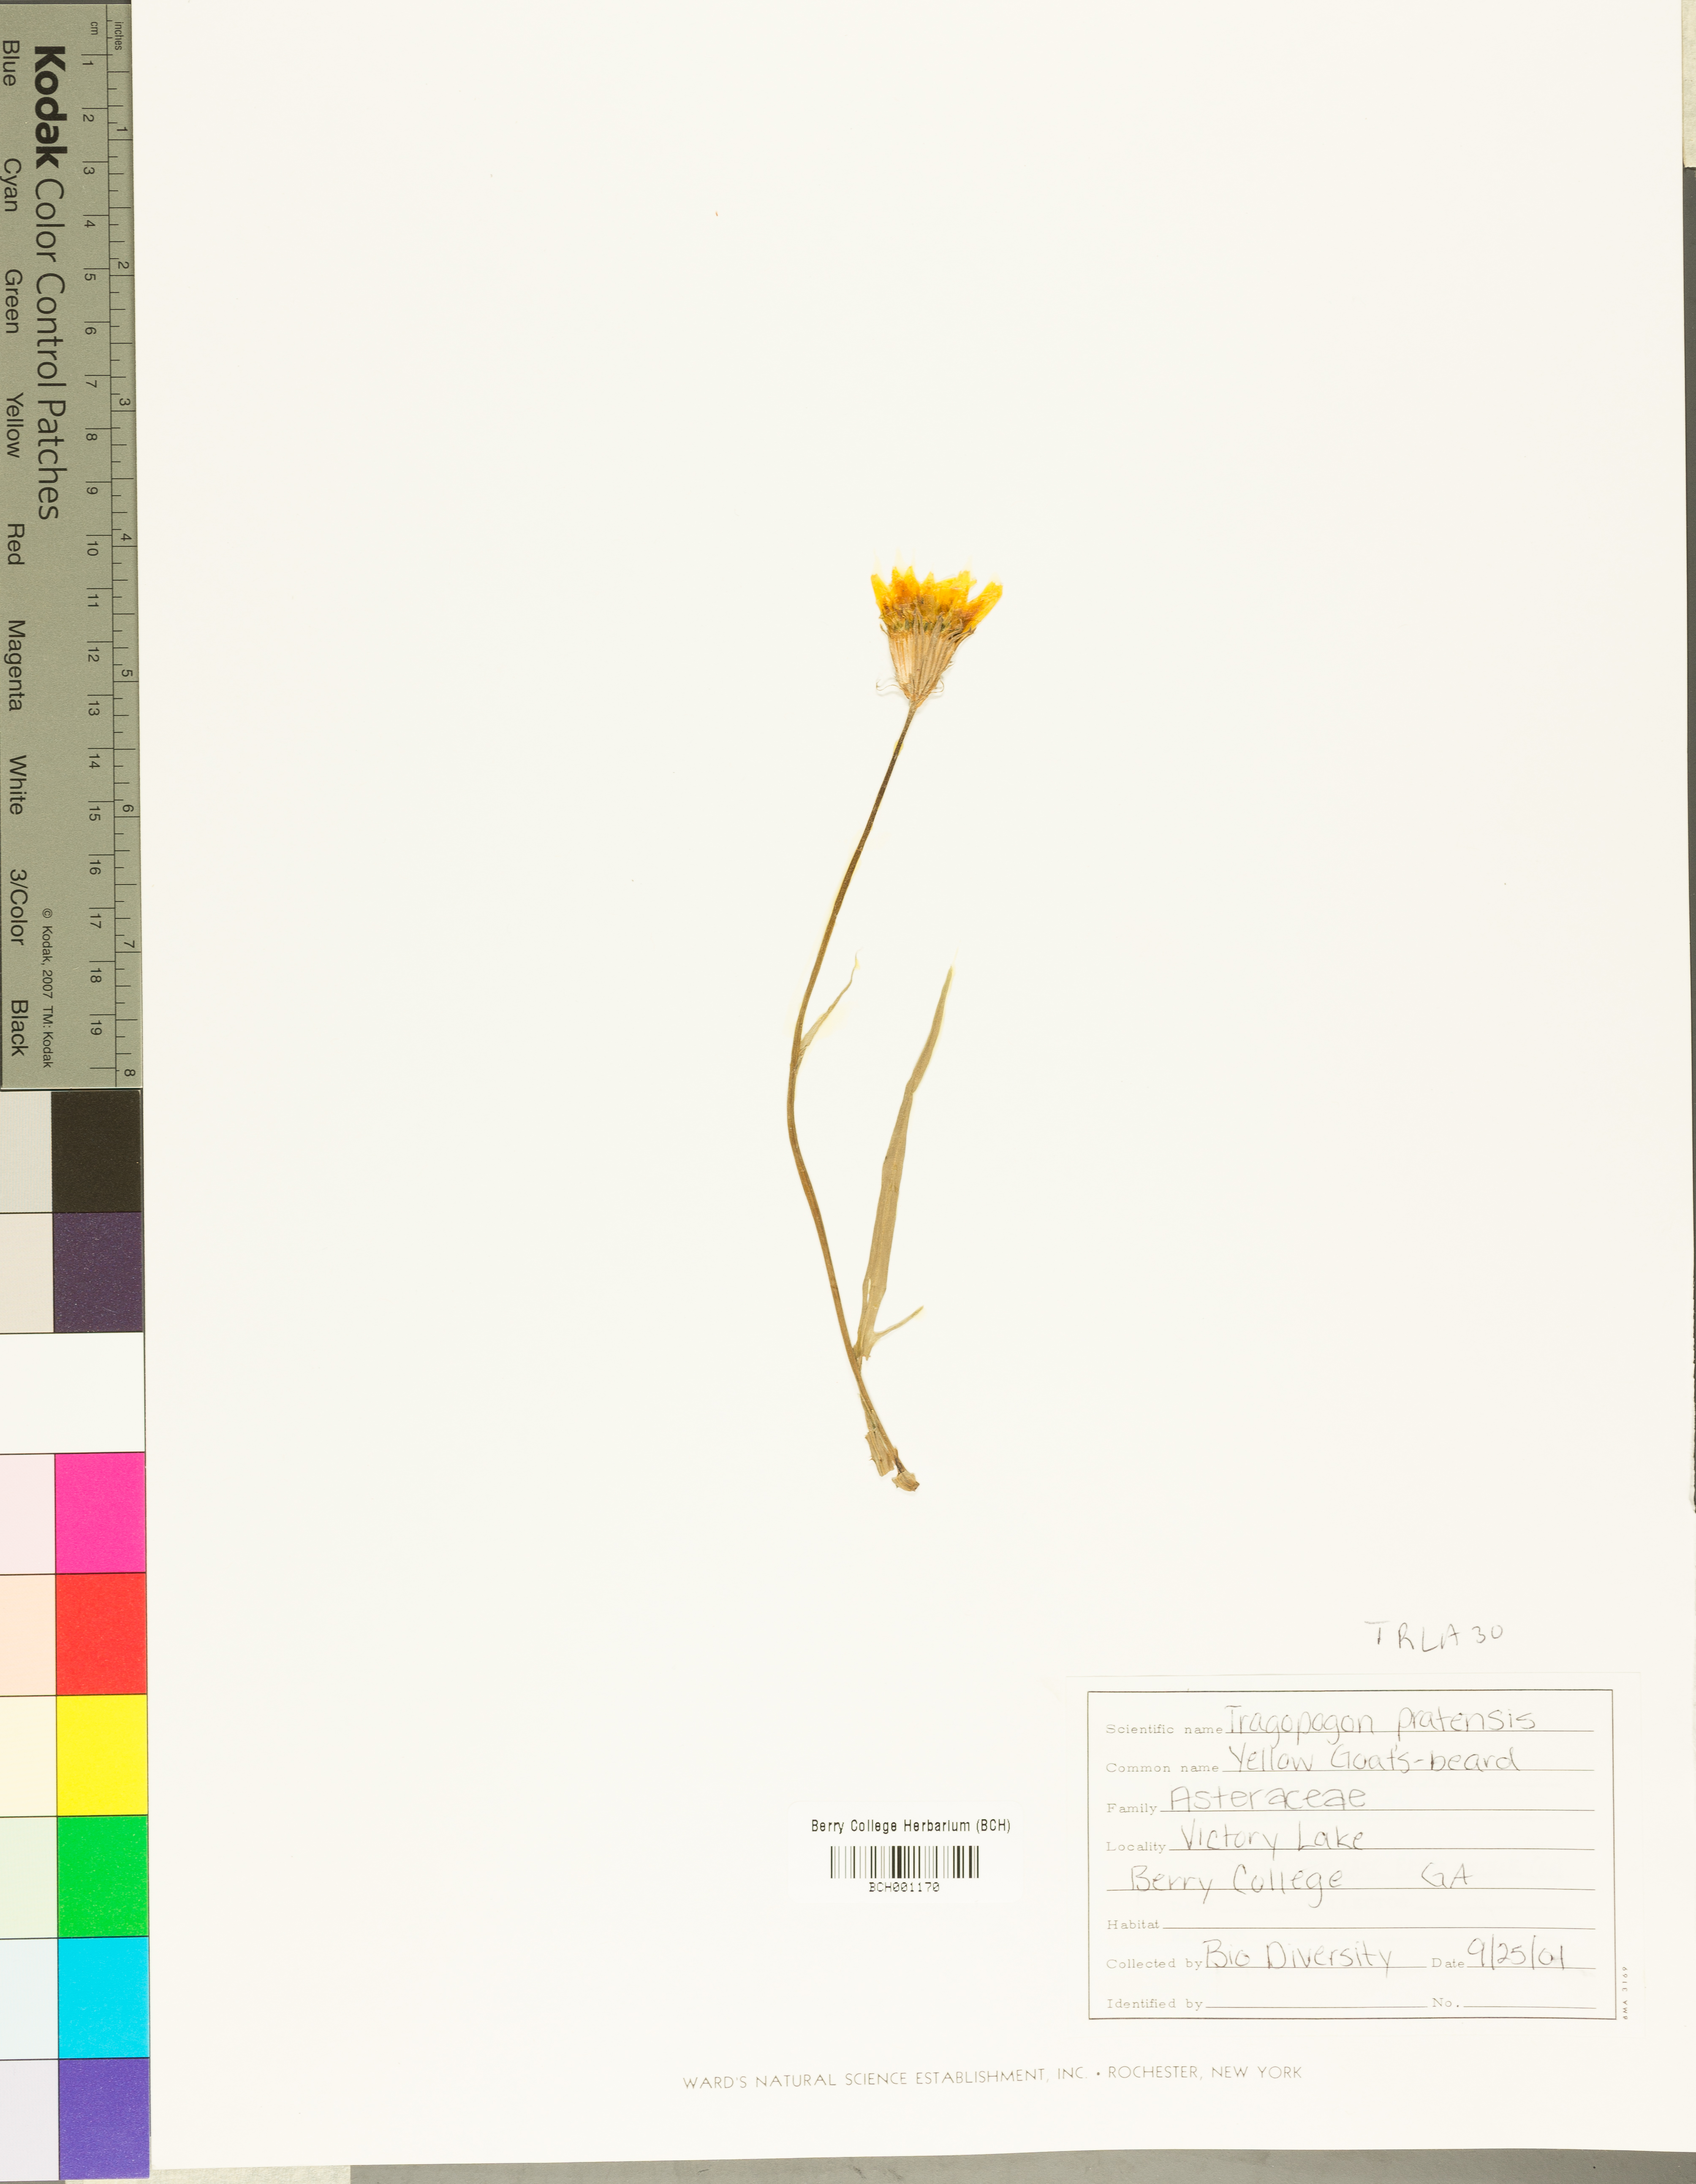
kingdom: Plantae
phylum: Tracheophyta
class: Magnoliopsida
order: Asterales
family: Asteraceae
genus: Tragopogon
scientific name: Tragopogon lamottei
